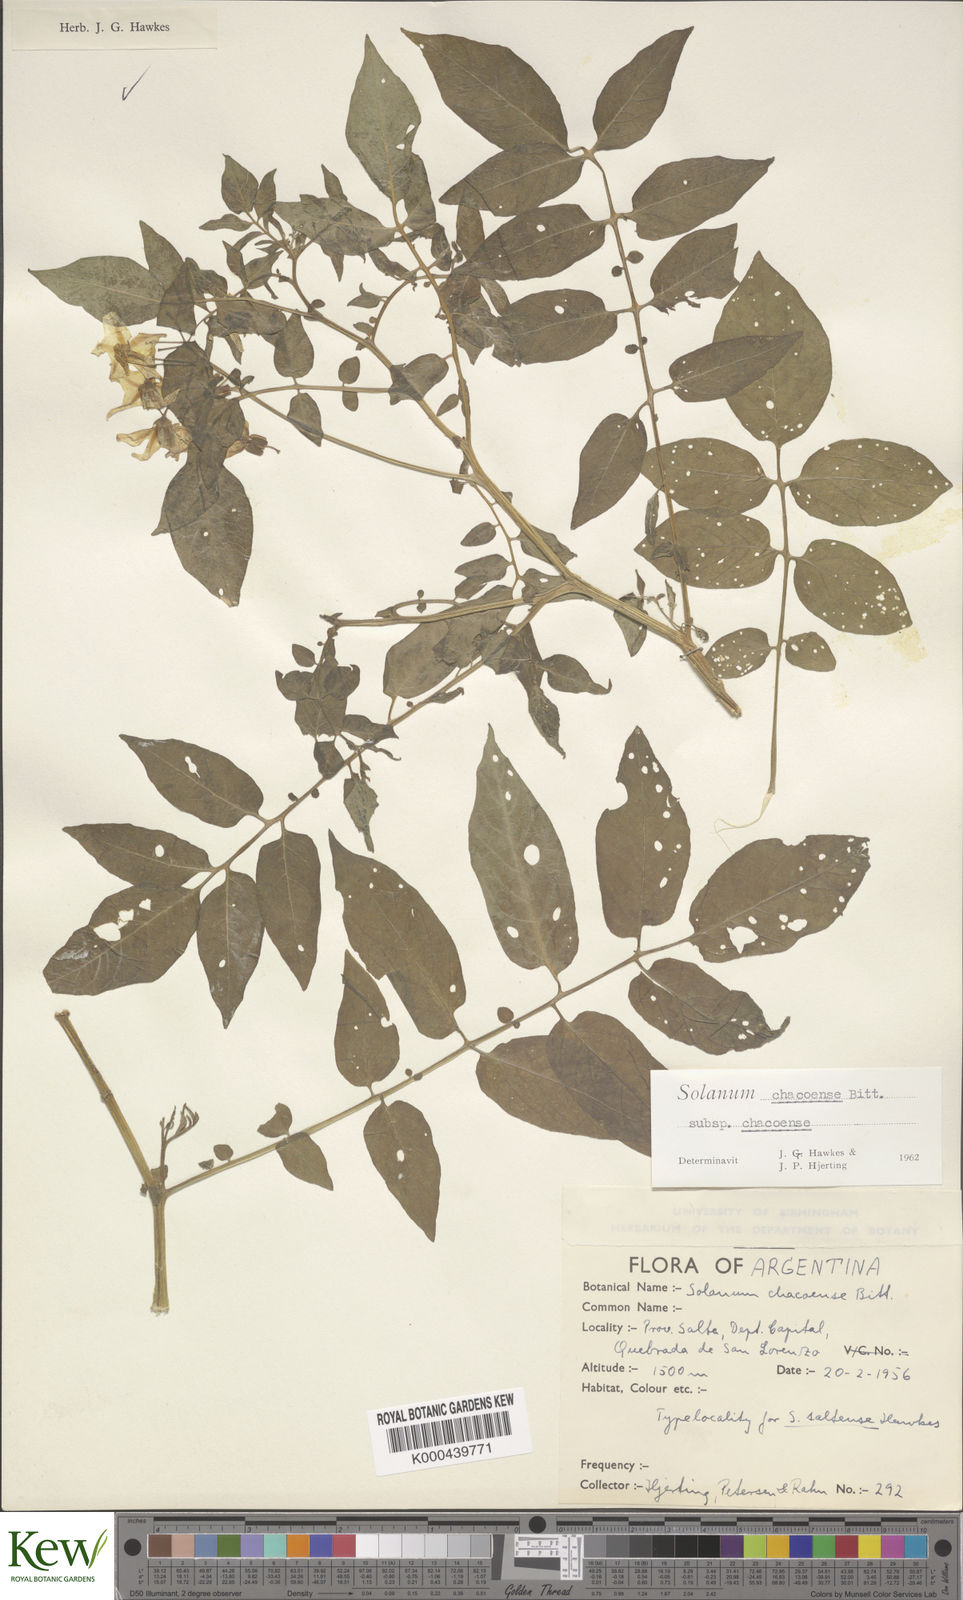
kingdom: Plantae
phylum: Tracheophyta
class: Magnoliopsida
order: Solanales
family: Solanaceae
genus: Solanum
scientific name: Solanum chacoense
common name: Chaco potato
